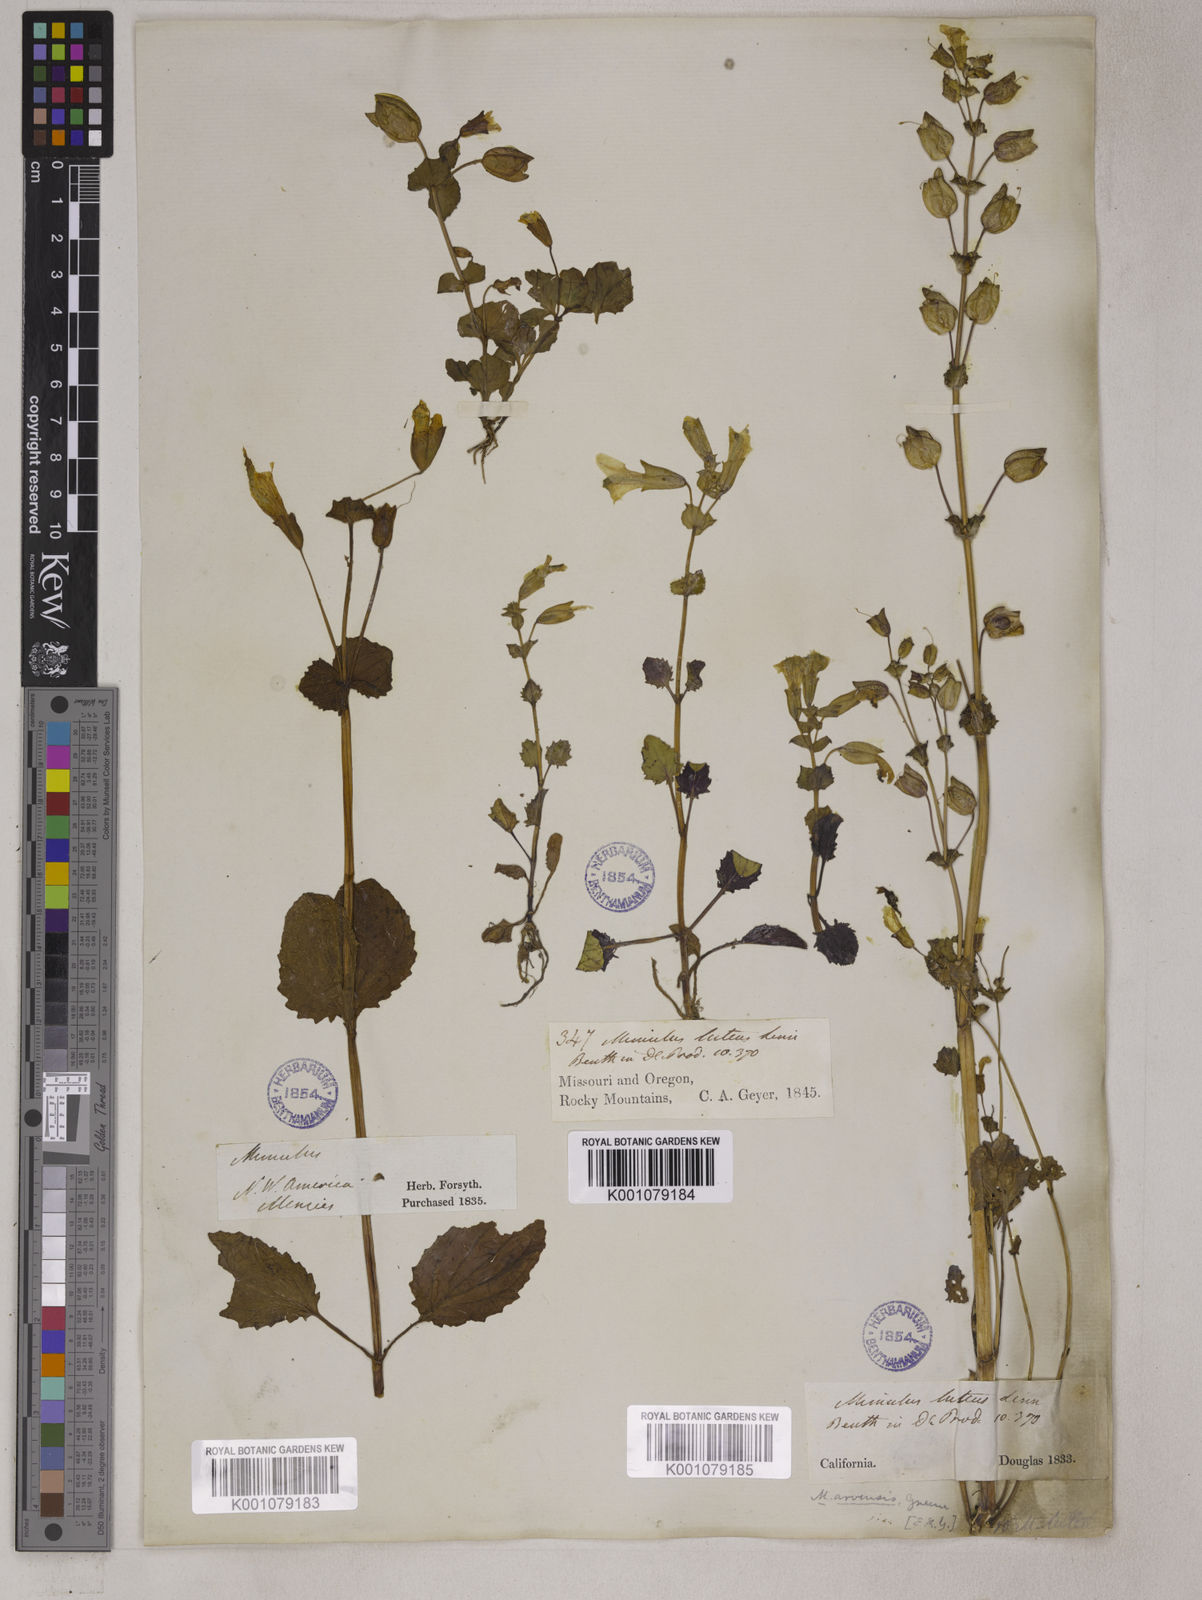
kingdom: Plantae
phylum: Tracheophyta
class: Magnoliopsida
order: Lamiales
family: Phrymaceae
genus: Erythranthe
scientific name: Erythranthe guttata
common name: Monkeyflower
